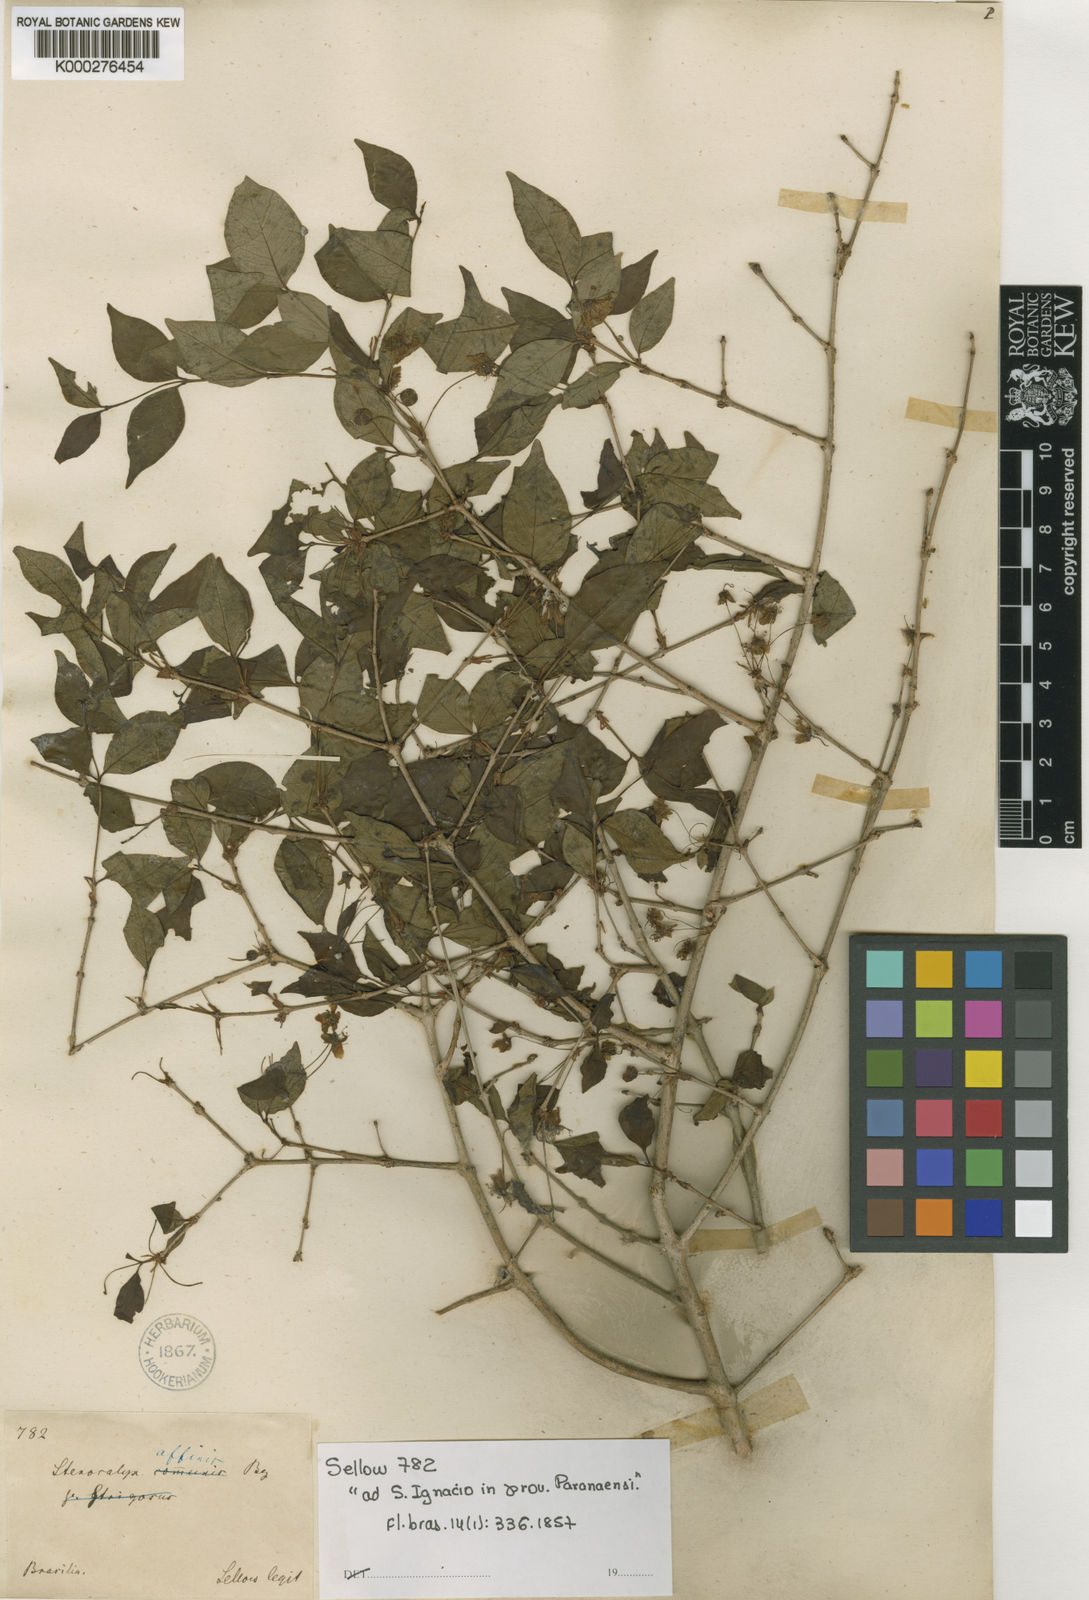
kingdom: Plantae
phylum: Tracheophyta
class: Magnoliopsida
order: Myrtales
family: Myrtaceae
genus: Eugenia
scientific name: Eugenia uniflora
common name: Surinam cherry
